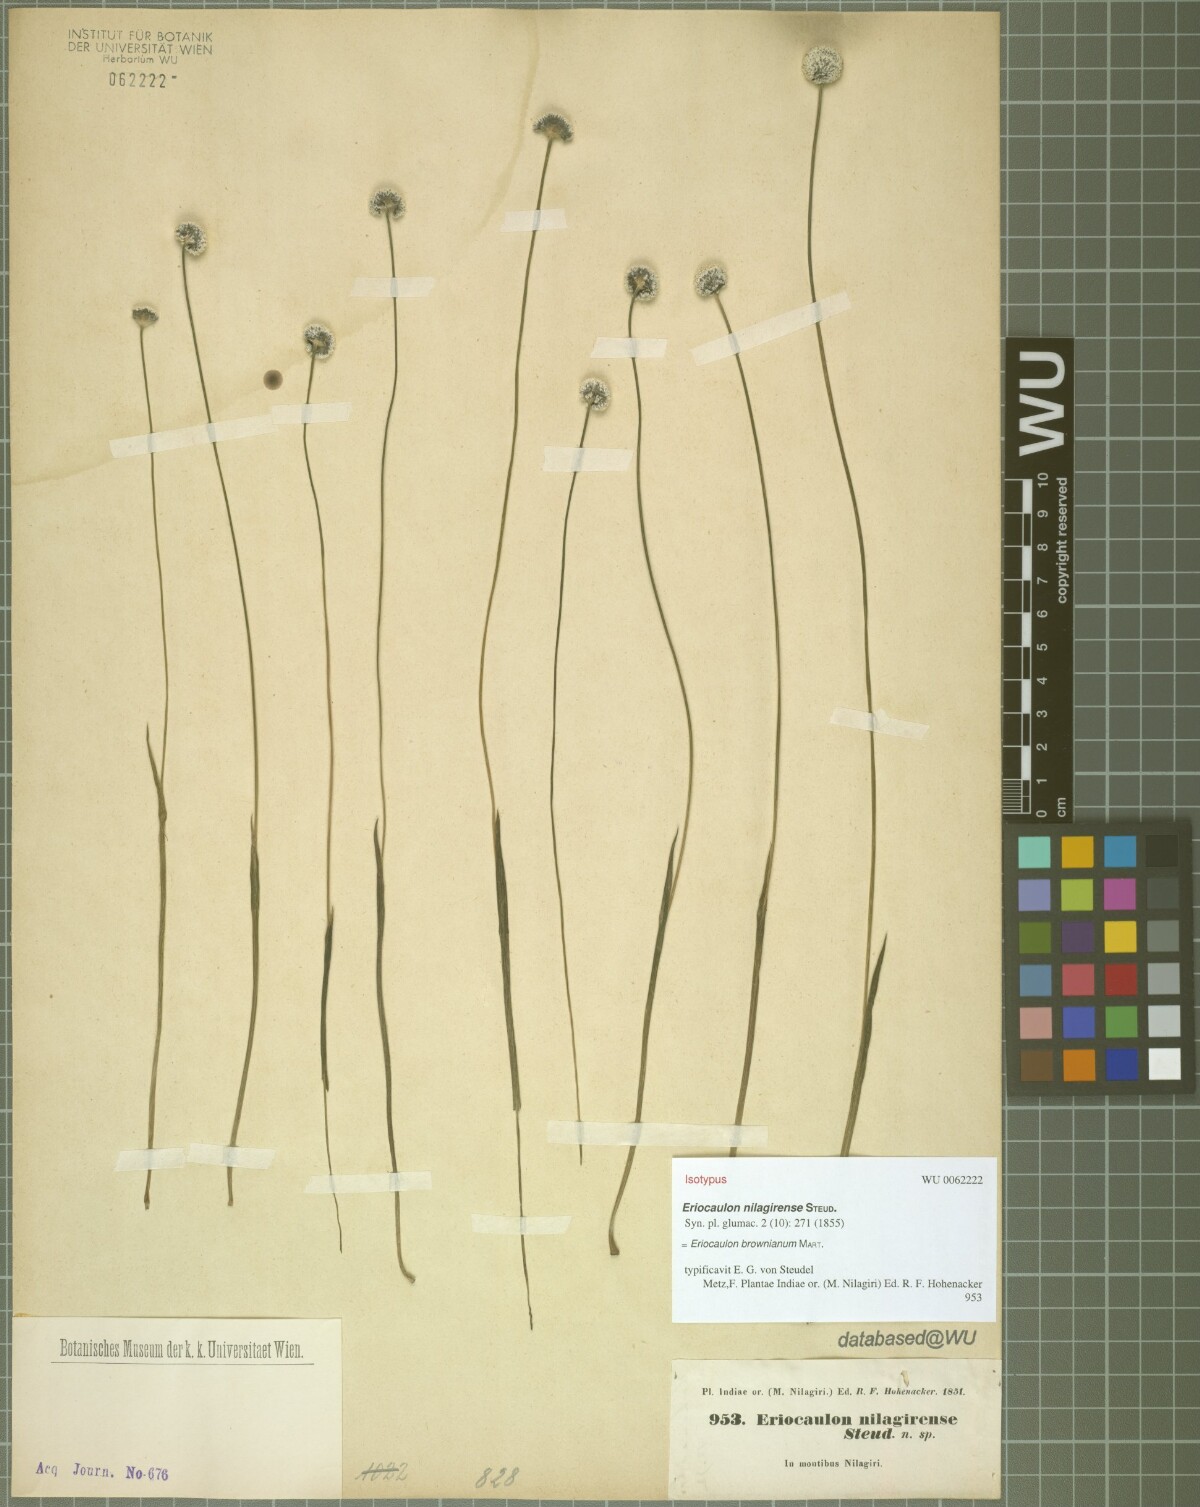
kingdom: Plantae
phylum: Tracheophyta
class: Liliopsida
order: Poales
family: Eriocaulaceae
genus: Eriocaulon
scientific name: Eriocaulon brownianum
